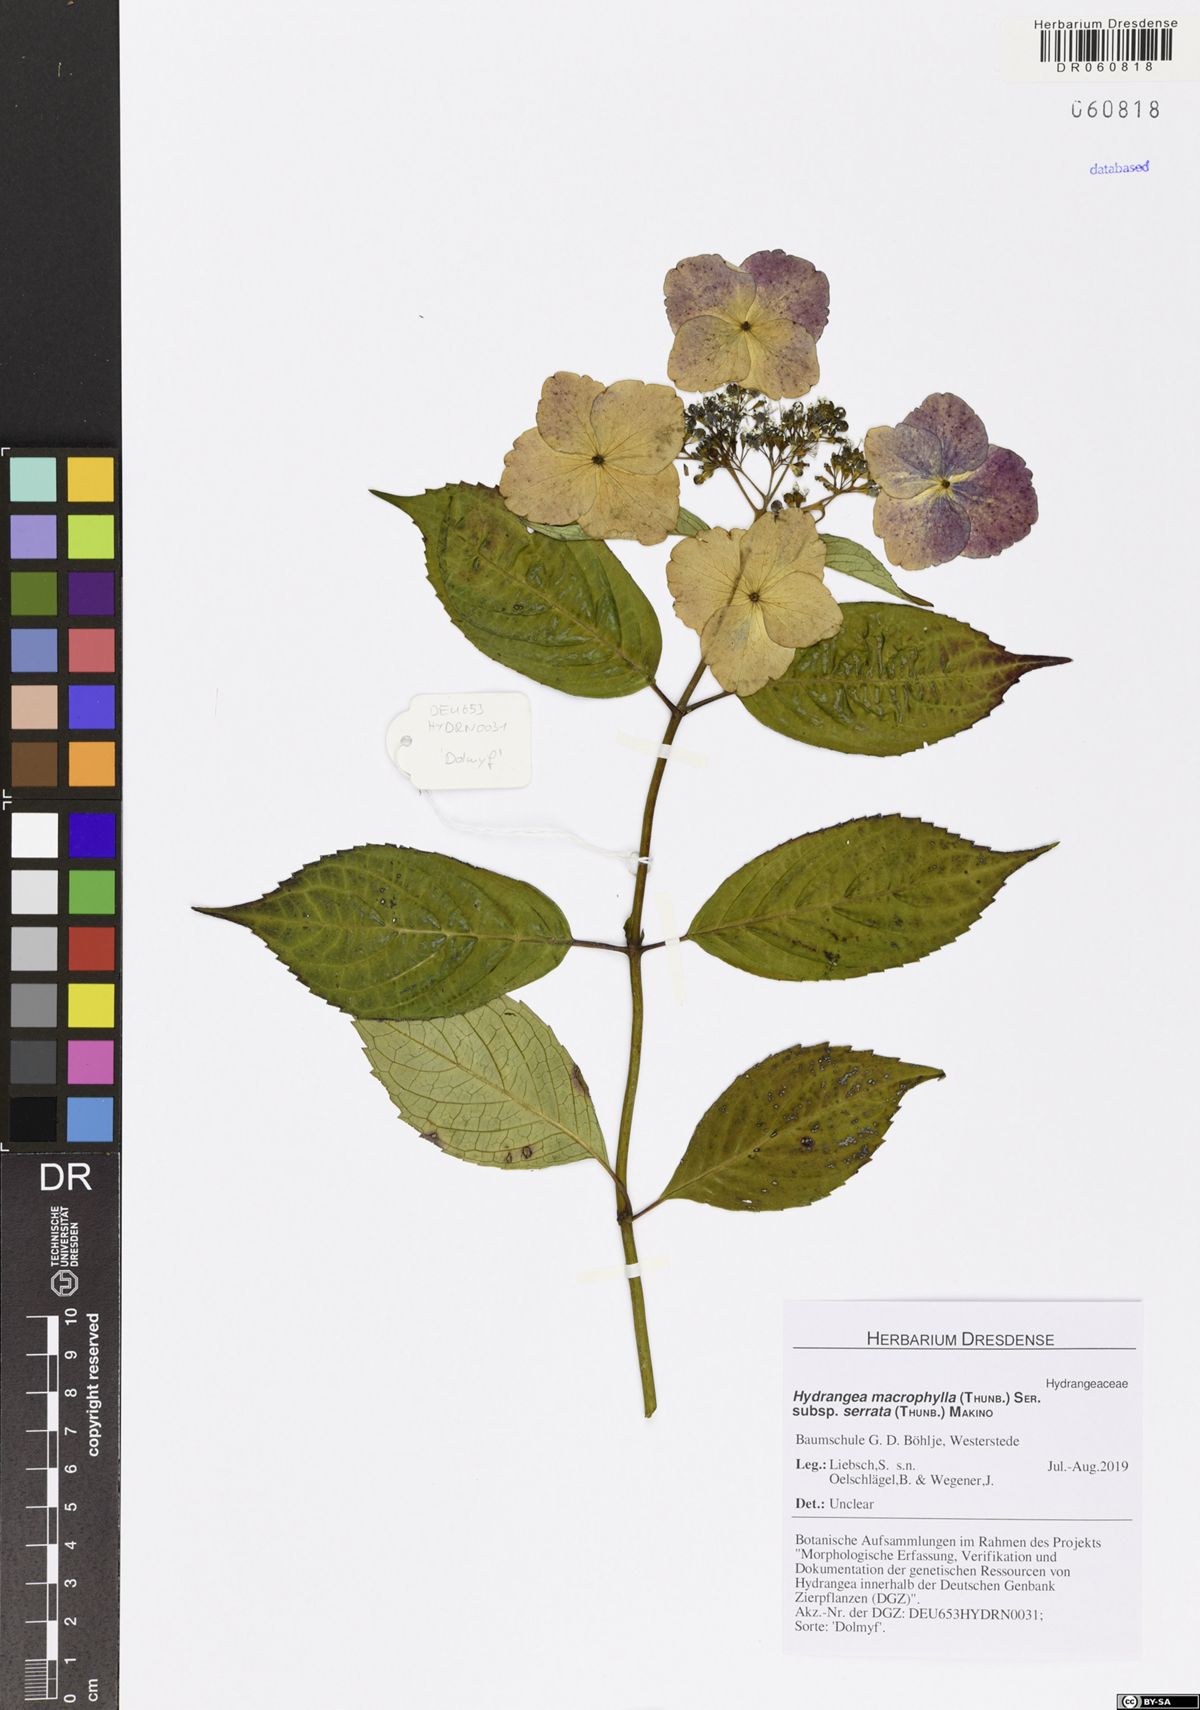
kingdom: Plantae
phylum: Tracheophyta
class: Magnoliopsida
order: Cornales
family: Hydrangeaceae
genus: Hydrangea
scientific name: Hydrangea serrata
